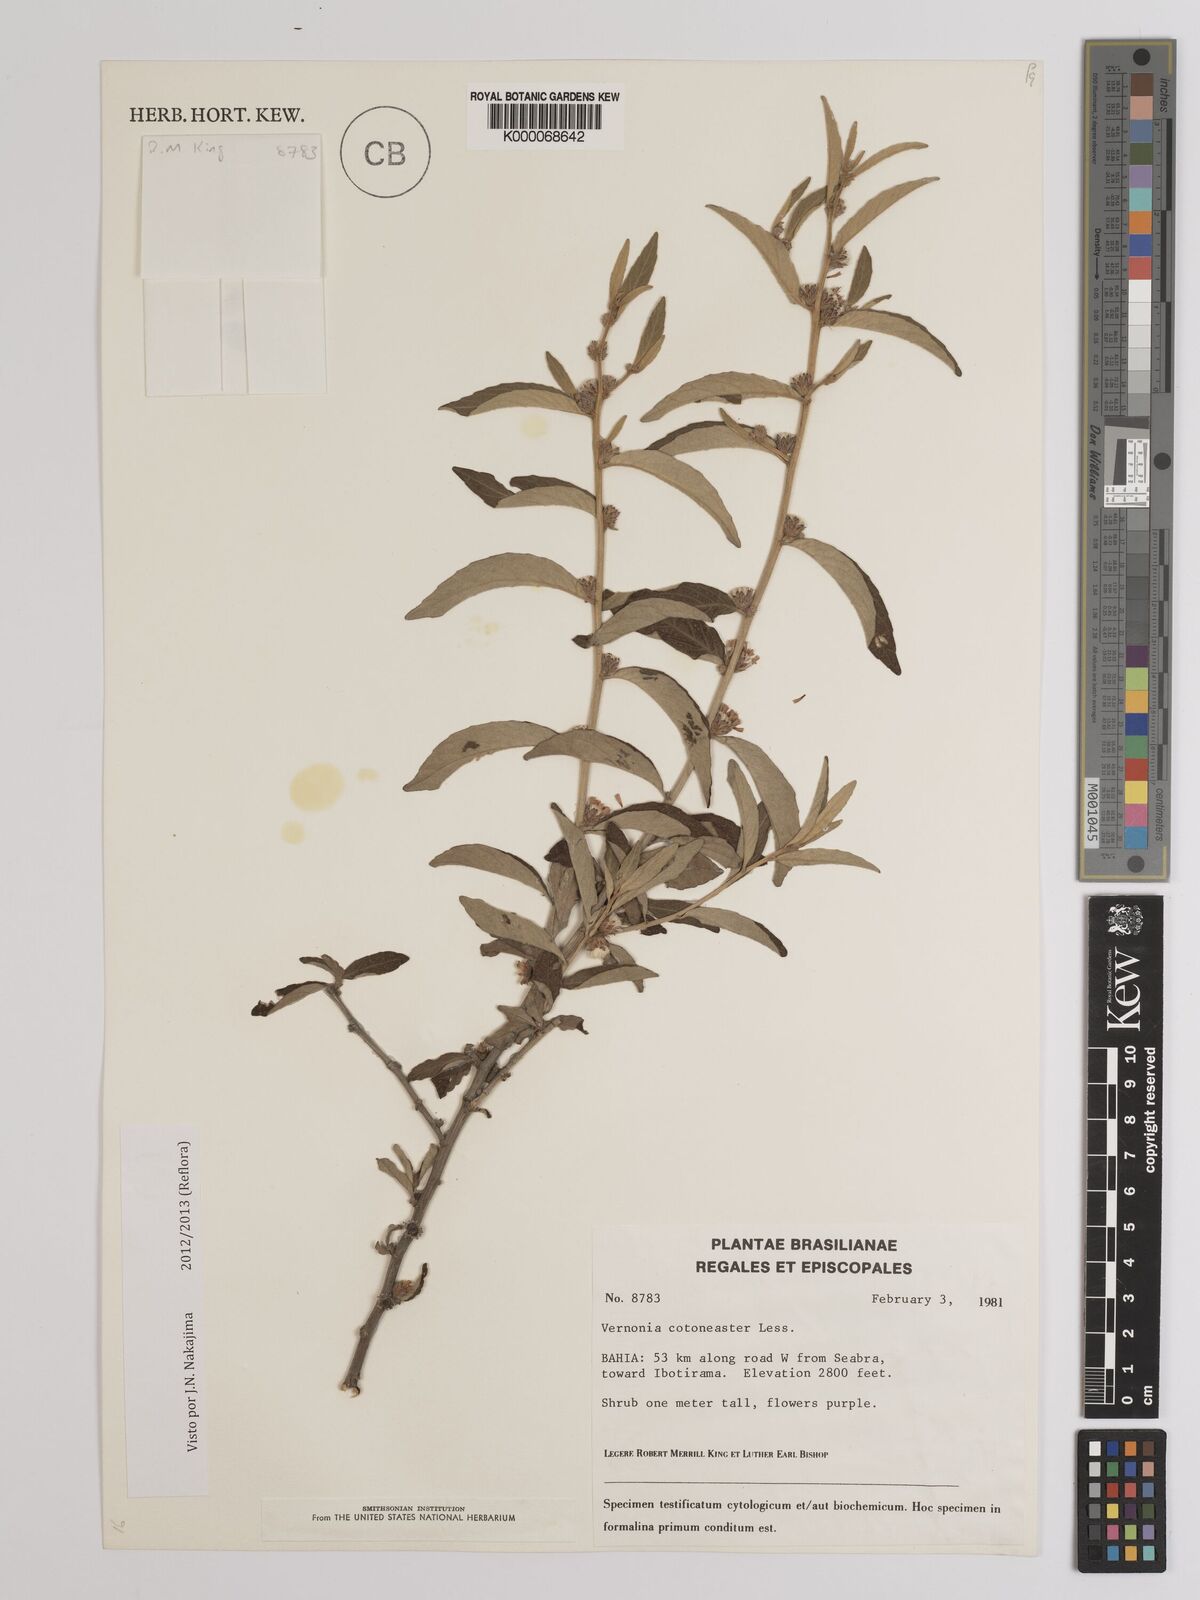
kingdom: Plantae
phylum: Tracheophyta
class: Magnoliopsida
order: Asterales
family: Asteraceae
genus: Lepidaploa
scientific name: Lepidaploa cotoneaster
